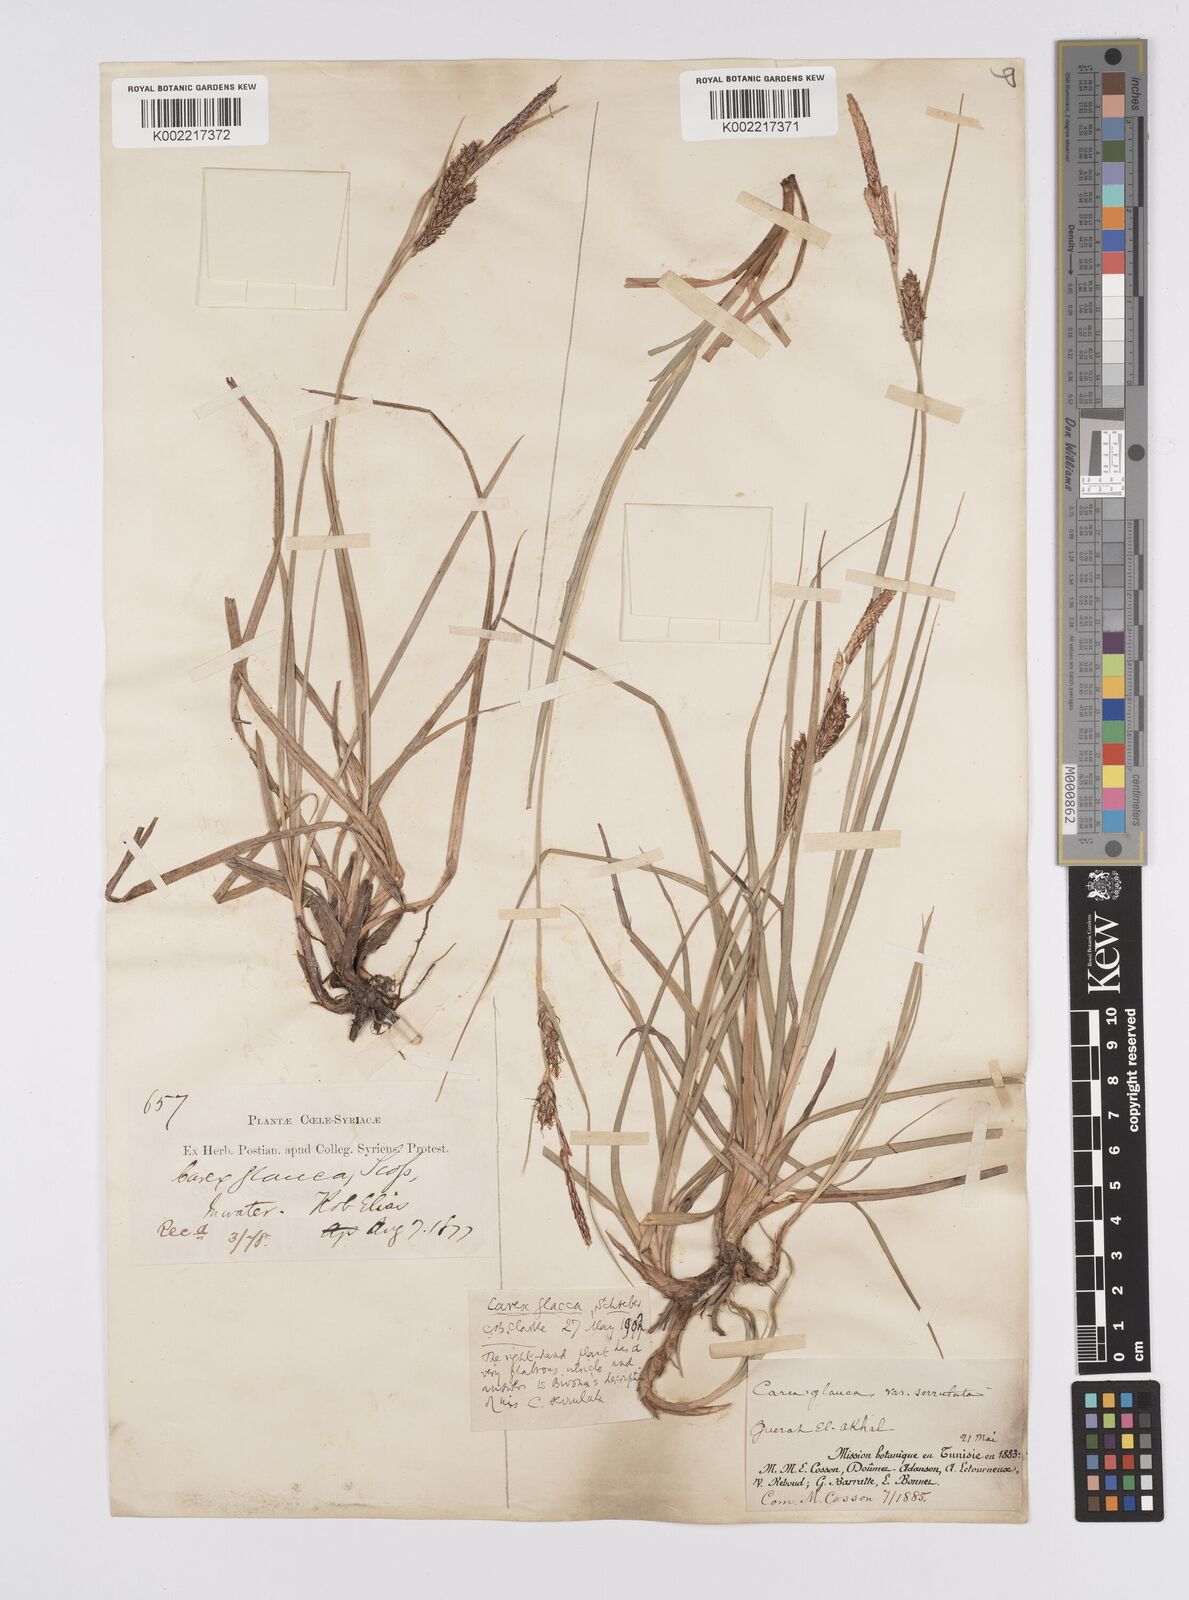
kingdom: Plantae
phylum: Tracheophyta
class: Liliopsida
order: Poales
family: Cyperaceae
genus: Carex
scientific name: Carex flacca
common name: Glaucous sedge
